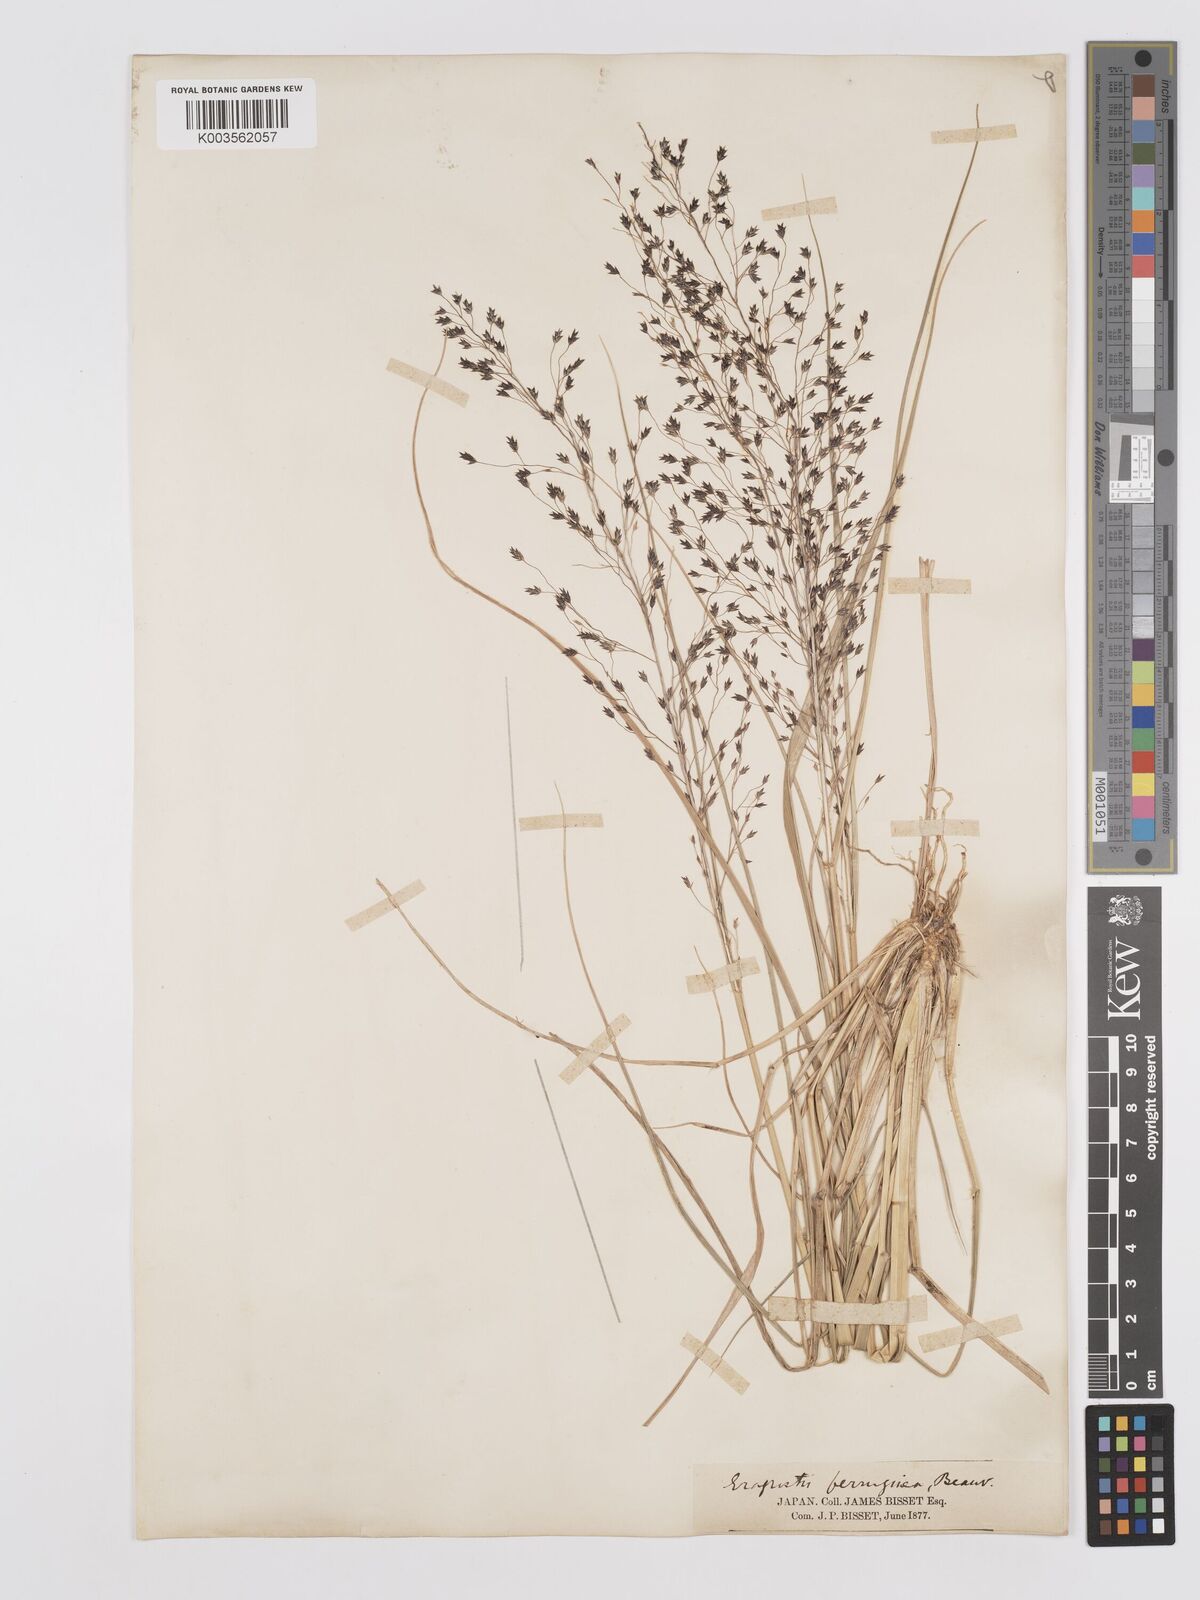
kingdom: Plantae
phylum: Tracheophyta
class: Liliopsida
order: Poales
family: Poaceae
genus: Eragrostis
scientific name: Eragrostis ferruginea
